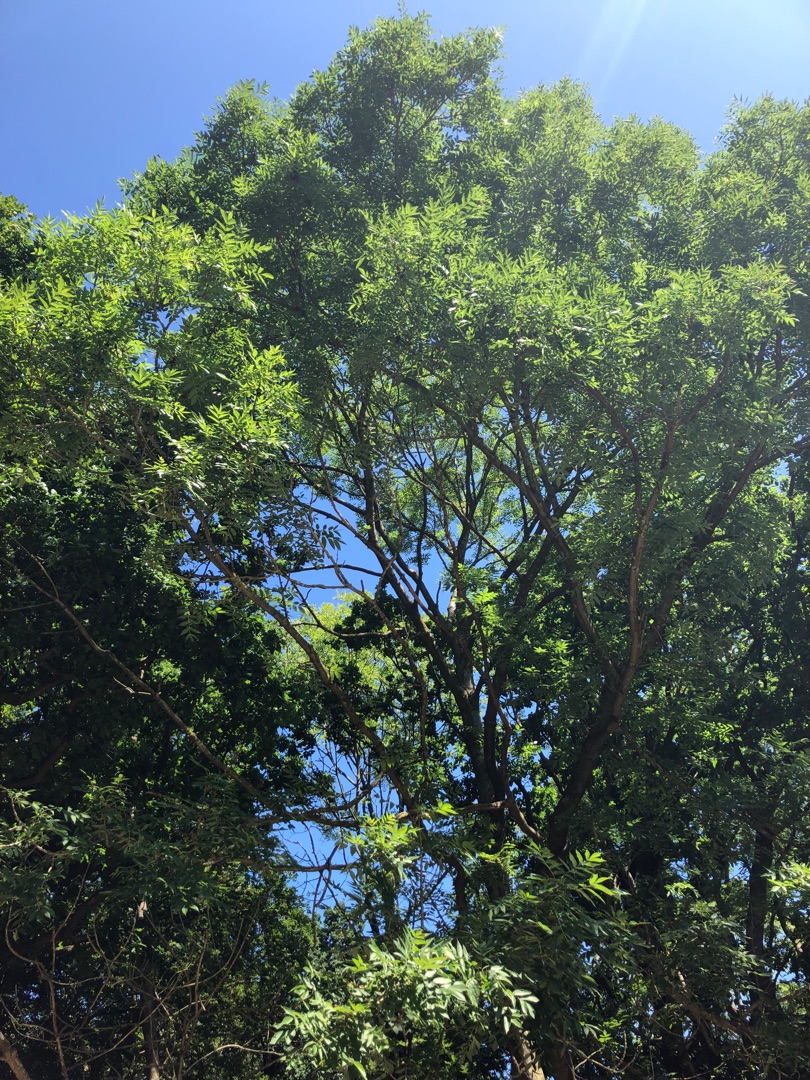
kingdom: Plantae
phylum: Tracheophyta
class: Magnoliopsida
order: Lamiales
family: Oleaceae
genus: Fraxinus
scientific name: Fraxinus excelsior
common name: Ask
